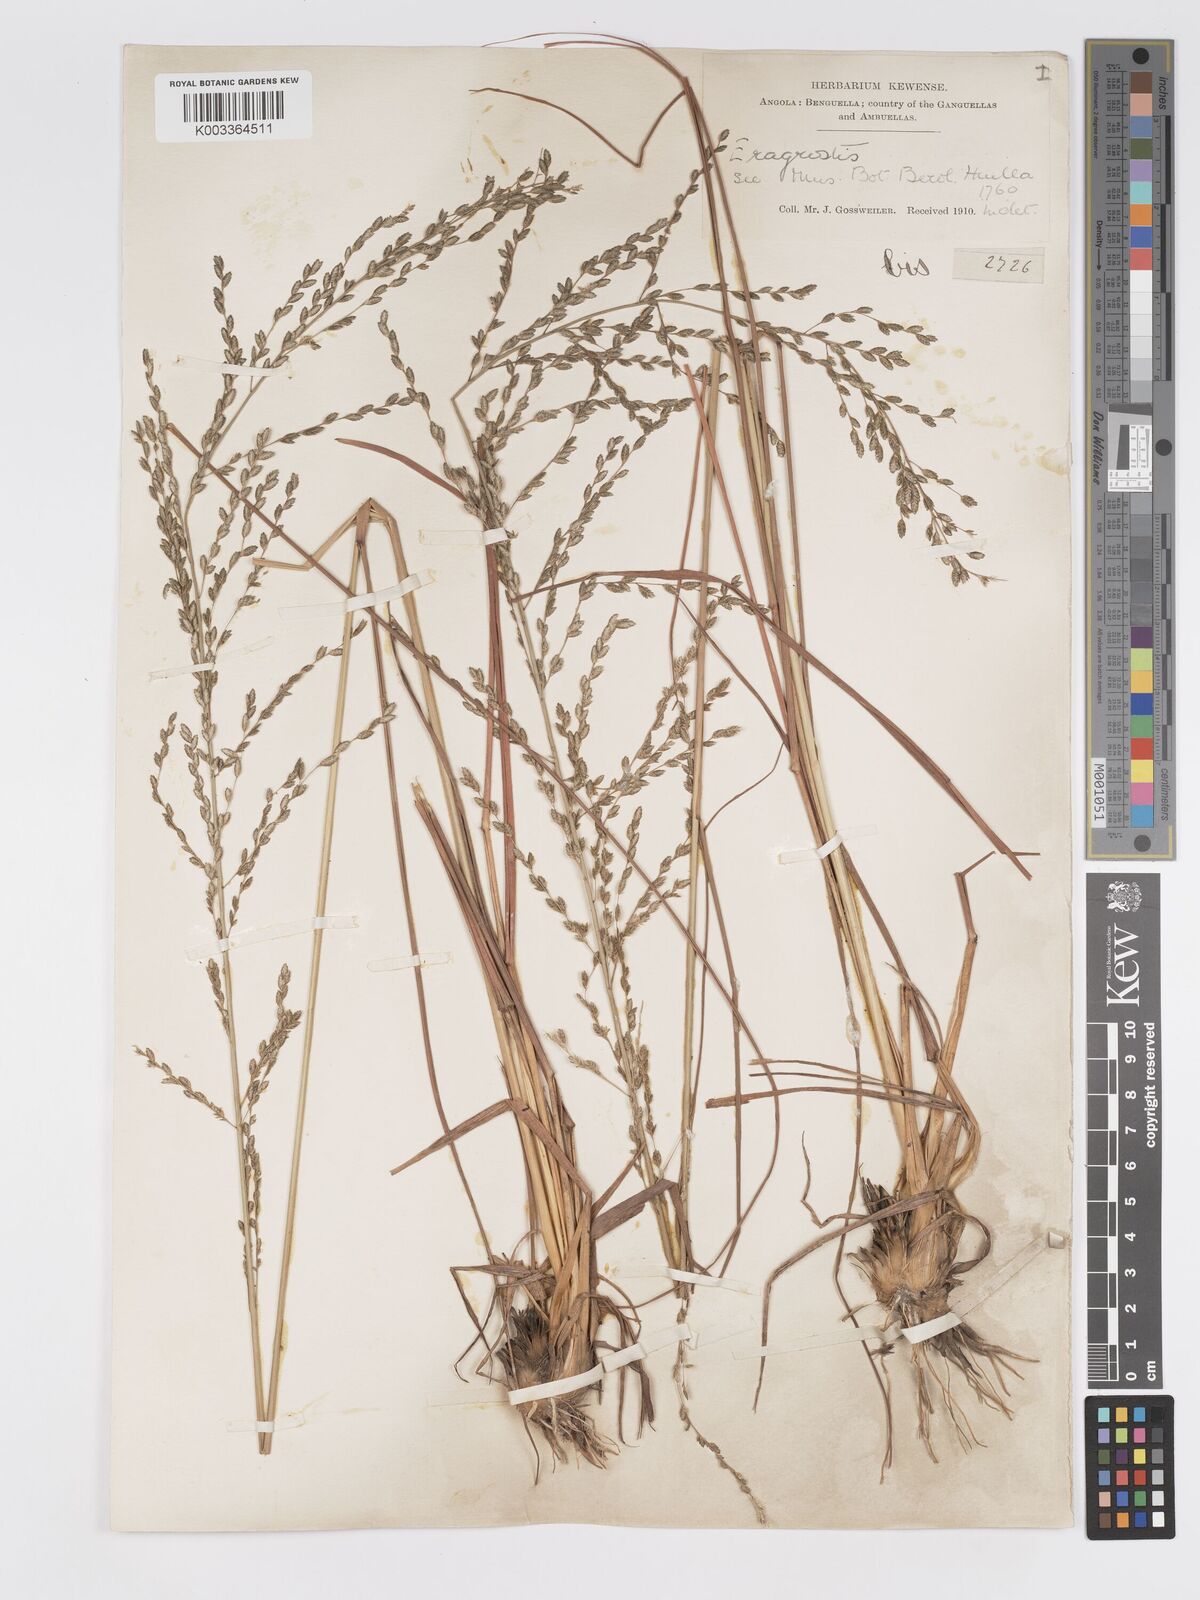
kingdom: Plantae
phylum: Tracheophyta
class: Liliopsida
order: Poales
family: Poaceae
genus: Eragrostis
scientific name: Eragrostis sclerantha
